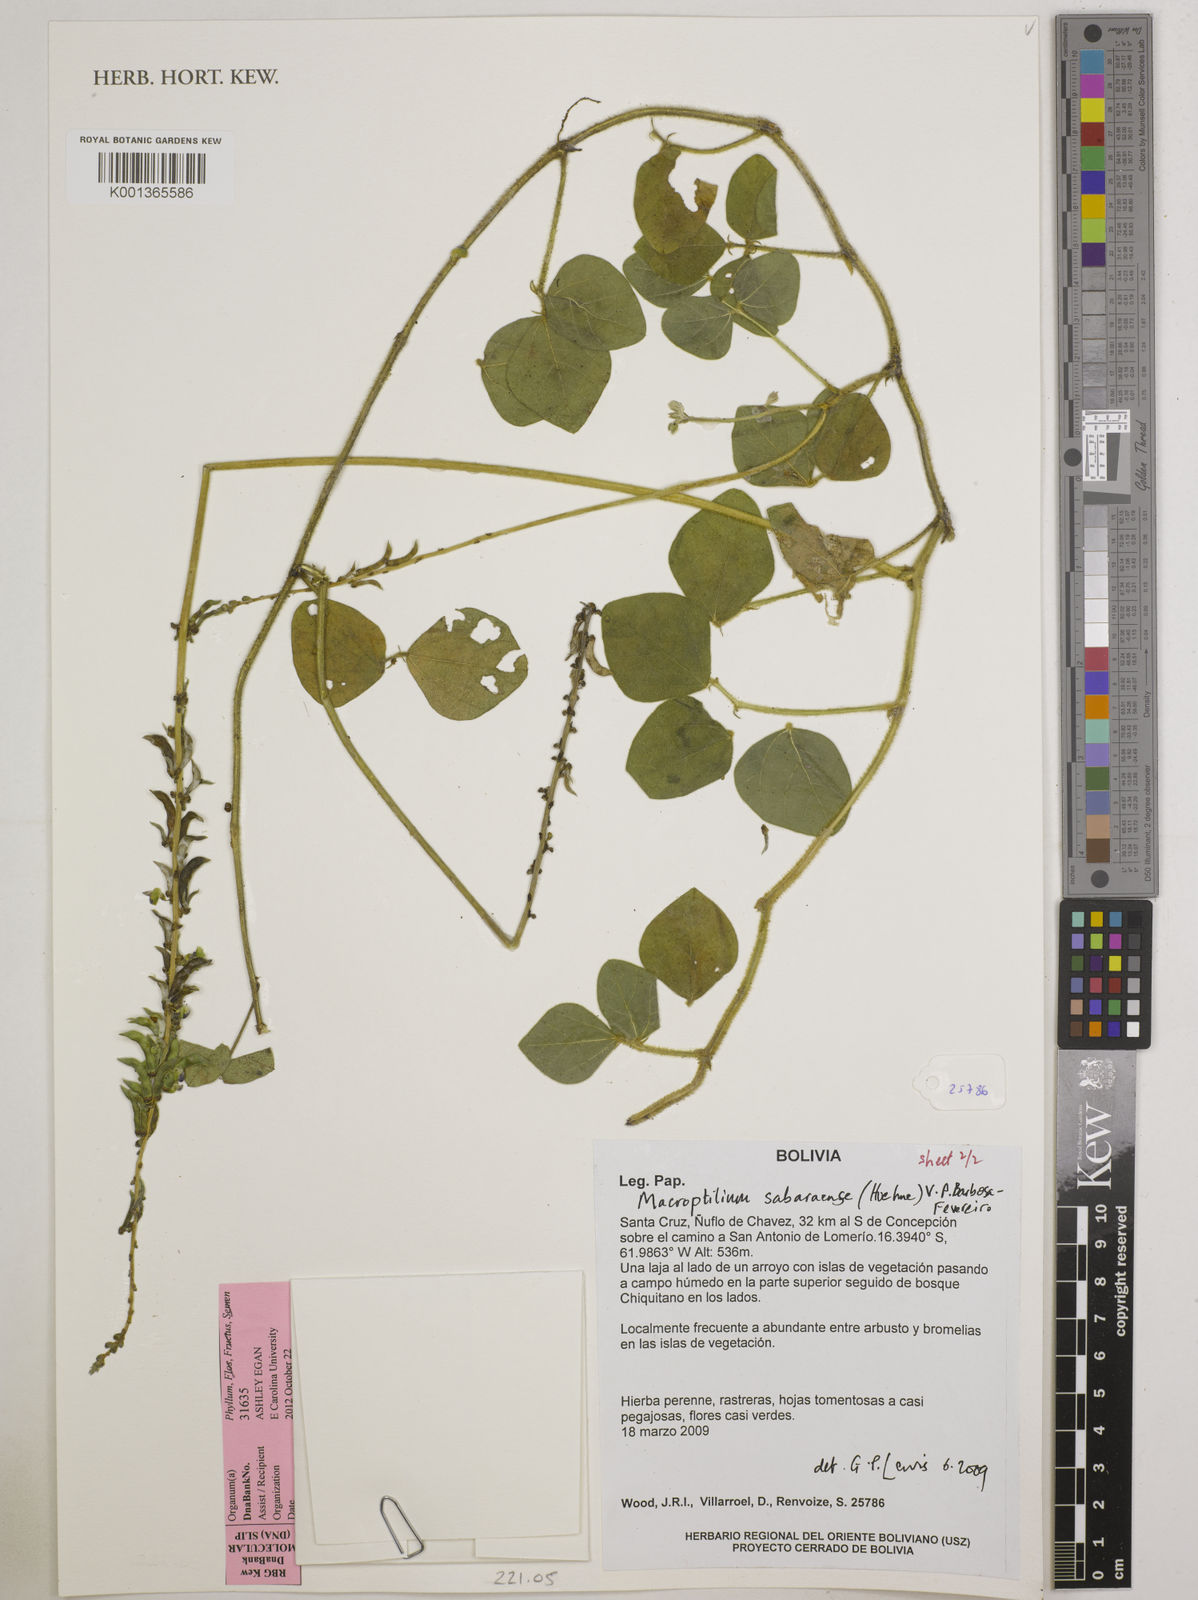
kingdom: Plantae
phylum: Tracheophyta
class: Magnoliopsida
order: Fabales
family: Fabaceae
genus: Macroptilium
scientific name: Macroptilium sabaraense
